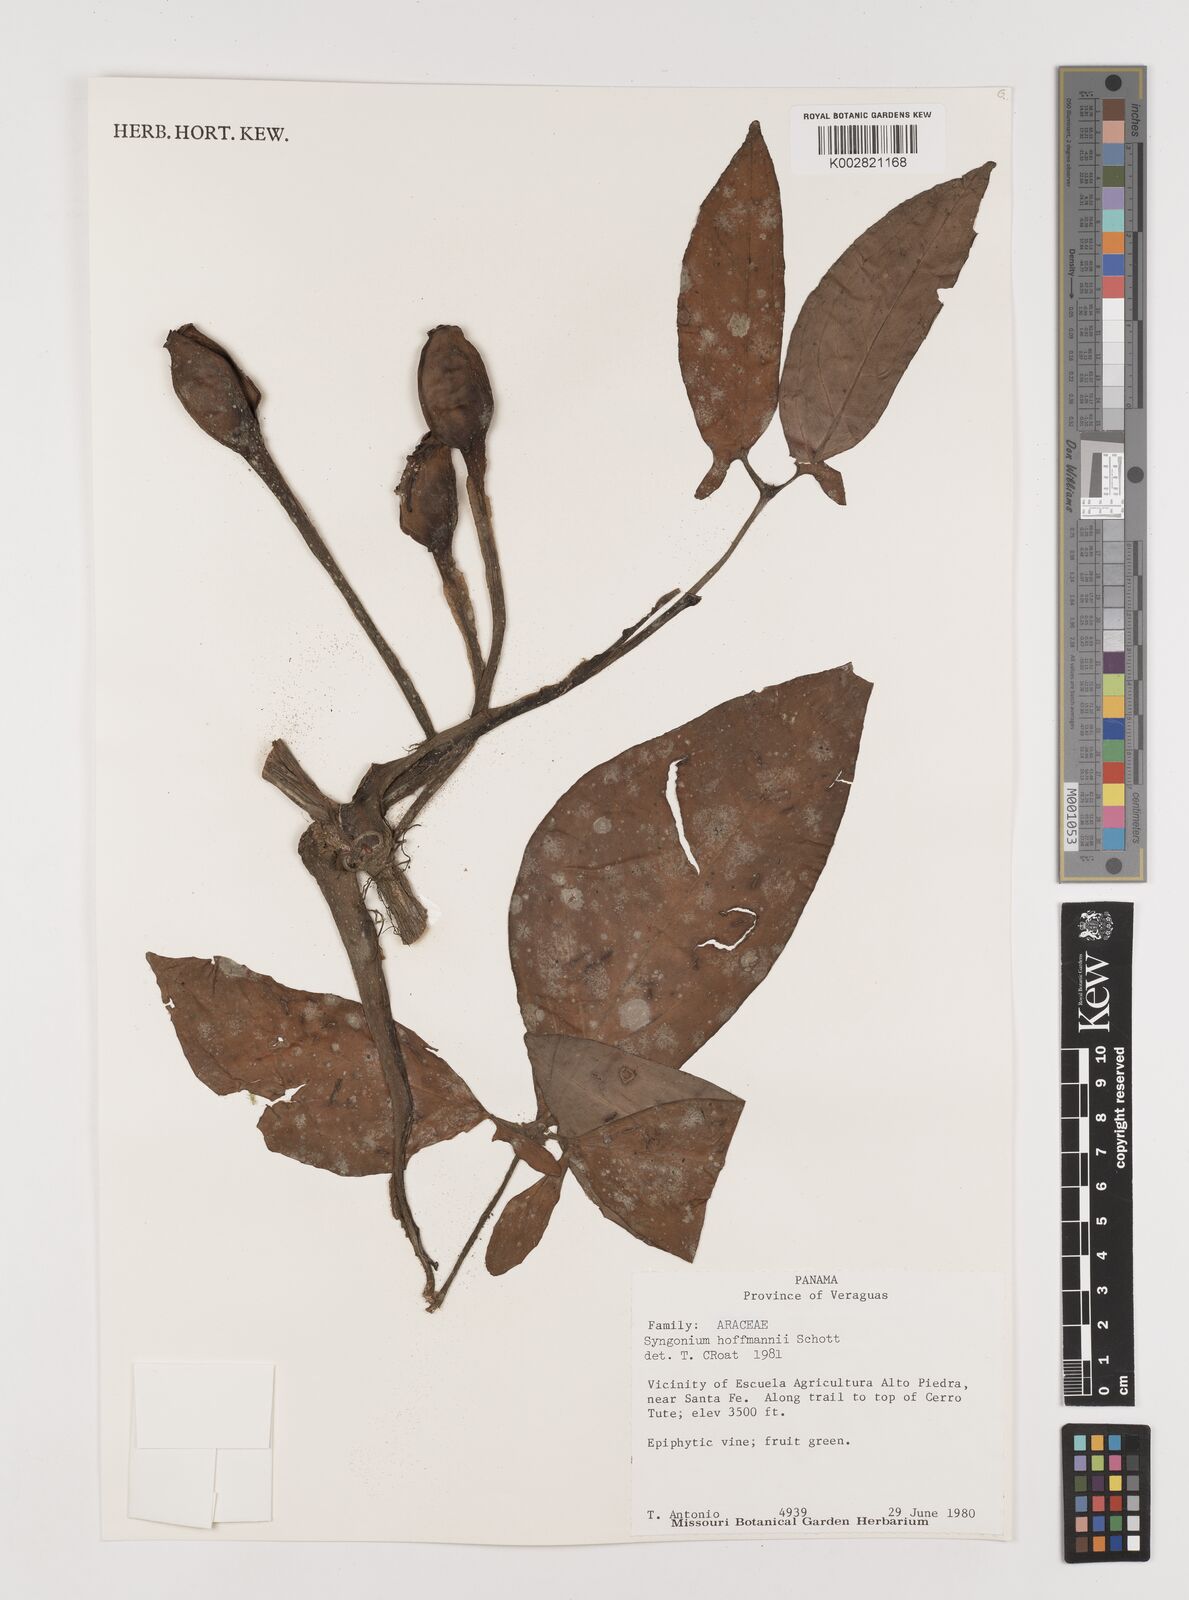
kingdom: Plantae
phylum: Tracheophyta
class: Liliopsida
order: Alismatales
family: Araceae
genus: Syngonium
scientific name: Syngonium hoffmannii
